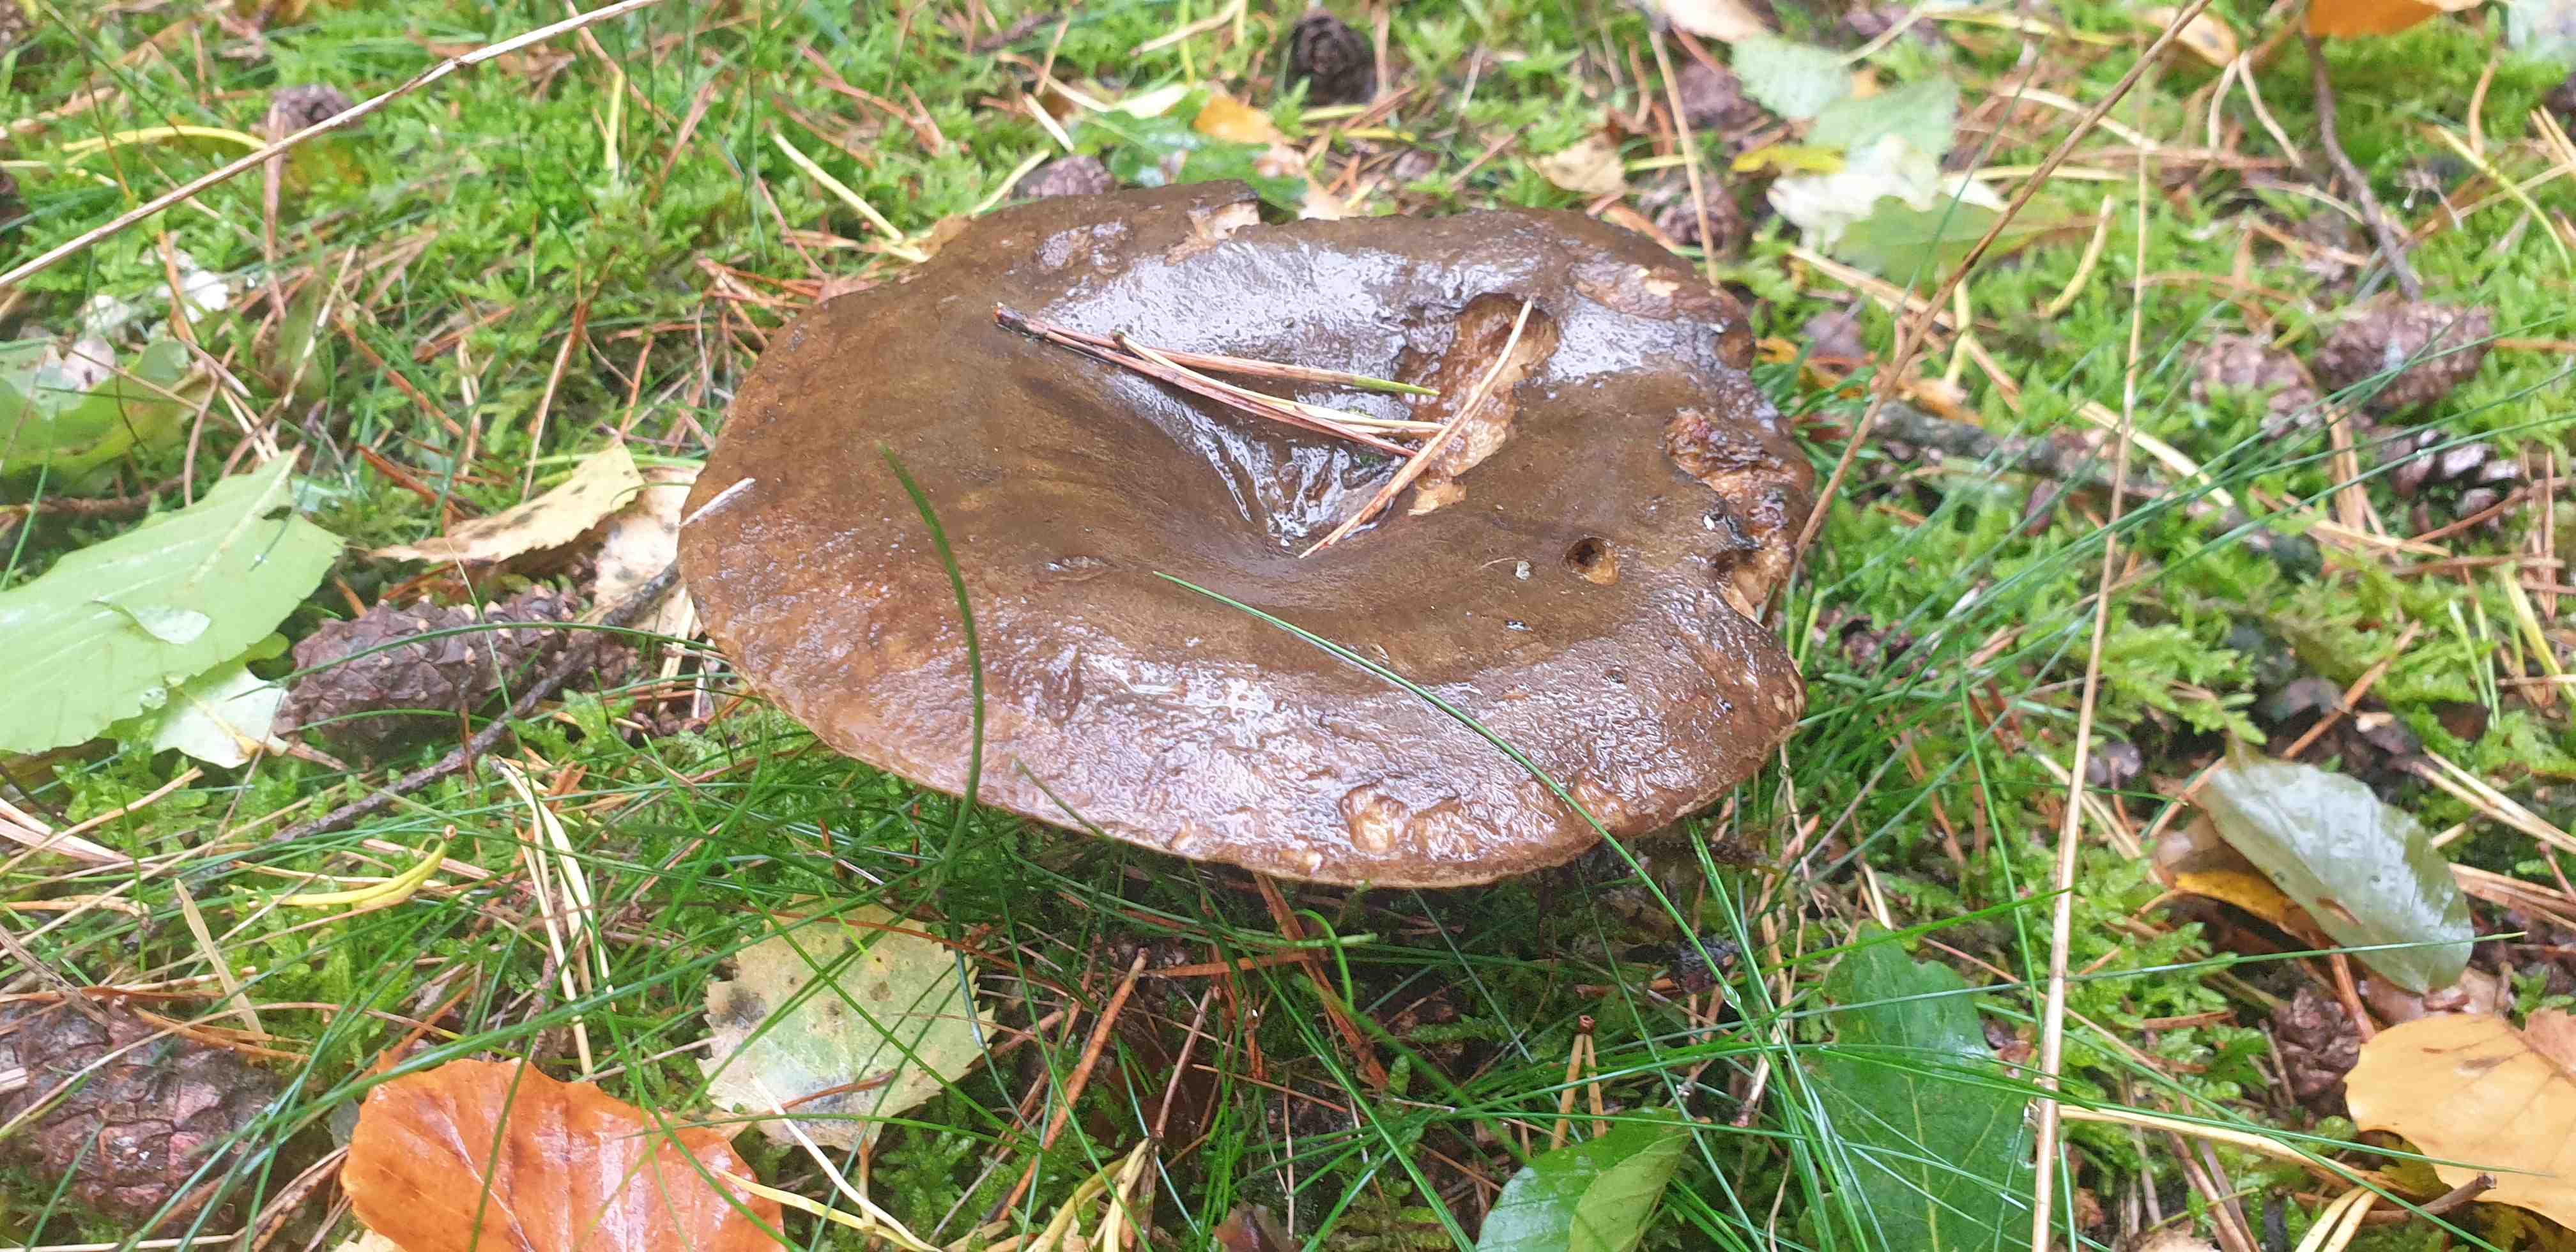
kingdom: Fungi
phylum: Basidiomycota
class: Agaricomycetes
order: Russulales
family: Russulaceae
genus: Lactarius
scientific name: Lactarius necator
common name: manddraber-mælkehat
